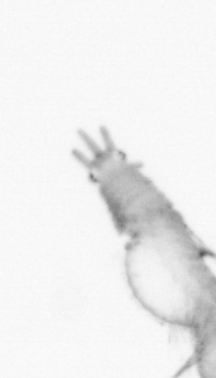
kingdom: Animalia
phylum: Annelida
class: Polychaeta
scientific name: Polychaeta
